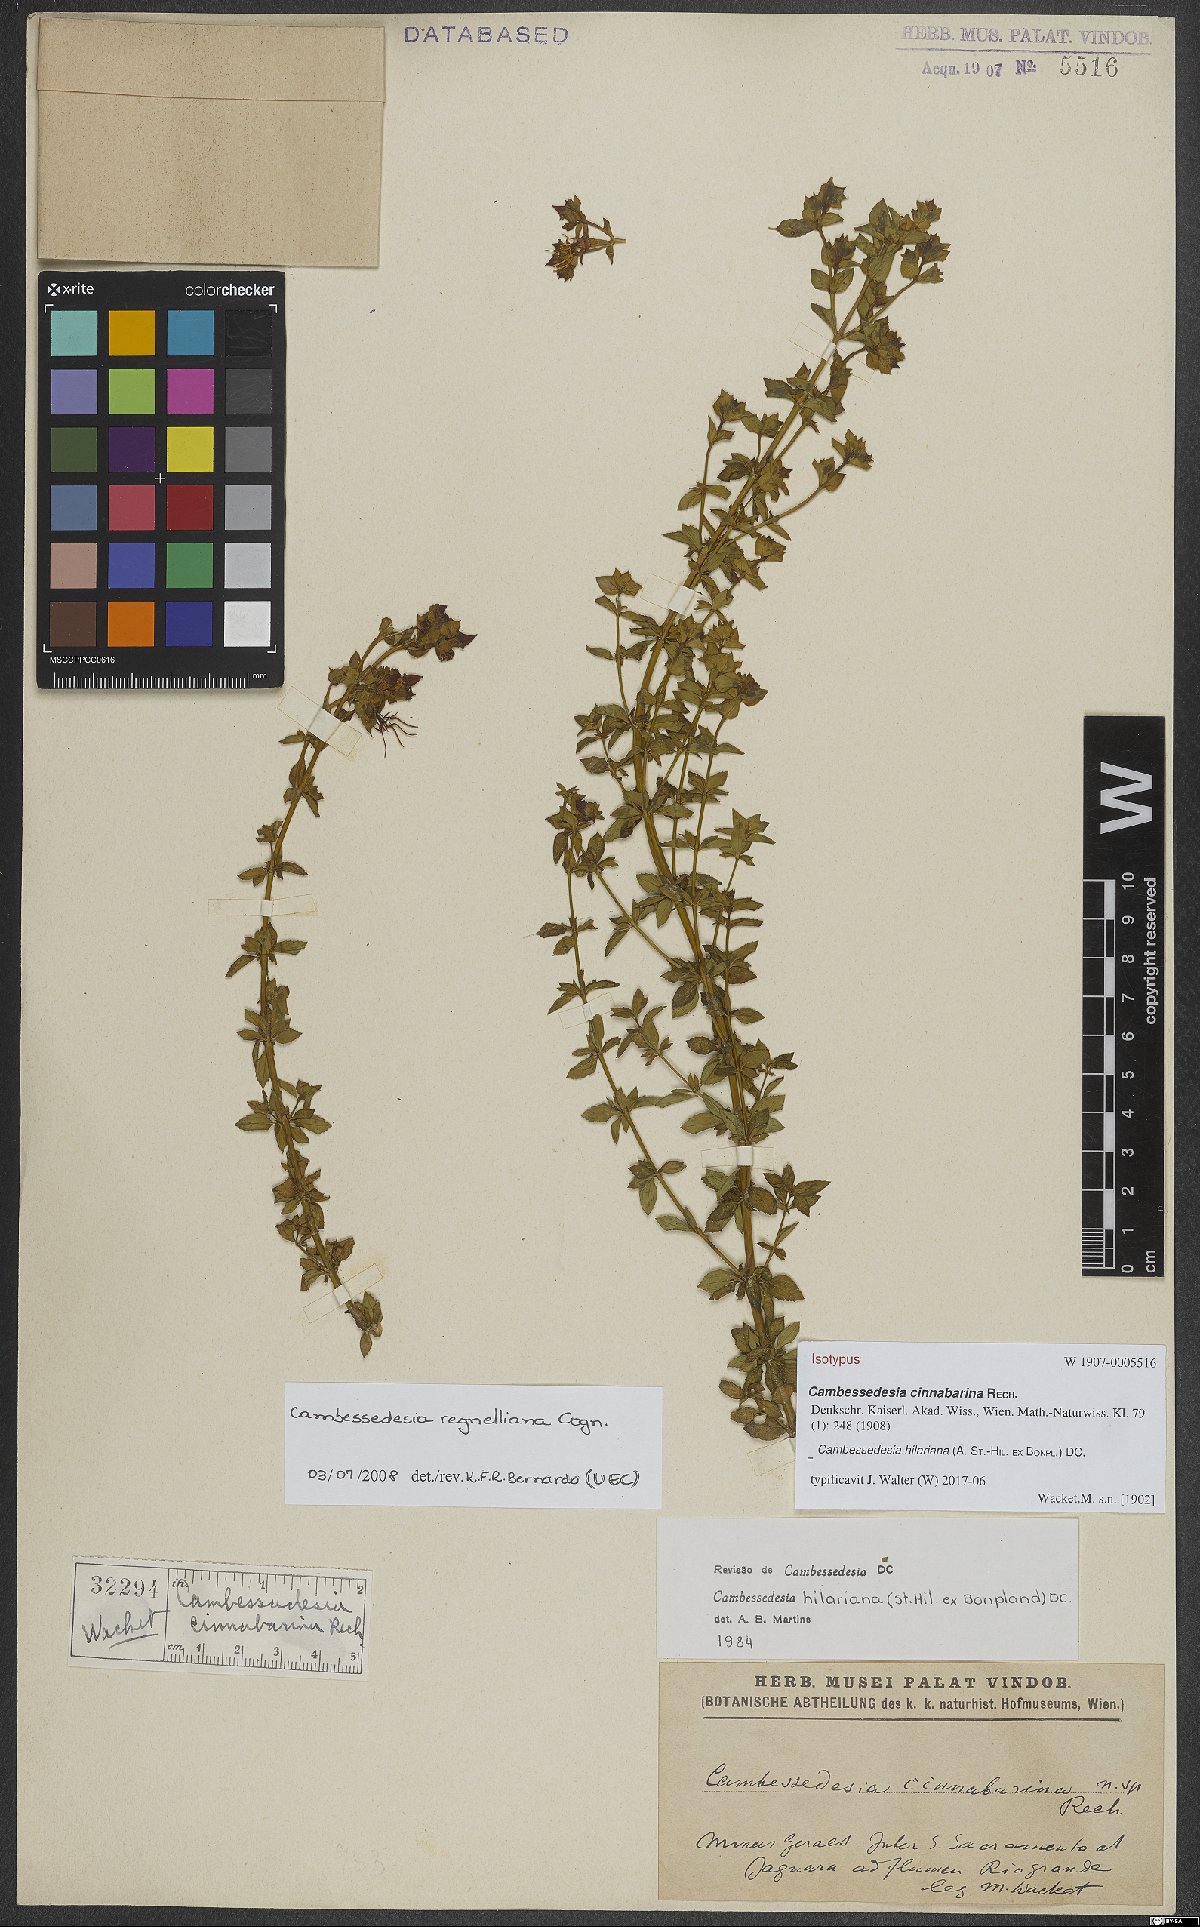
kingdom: Plantae
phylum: Tracheophyta
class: Magnoliopsida
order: Myrtales
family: Melastomataceae
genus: Cambessedesia
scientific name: Cambessedesia hilariana
